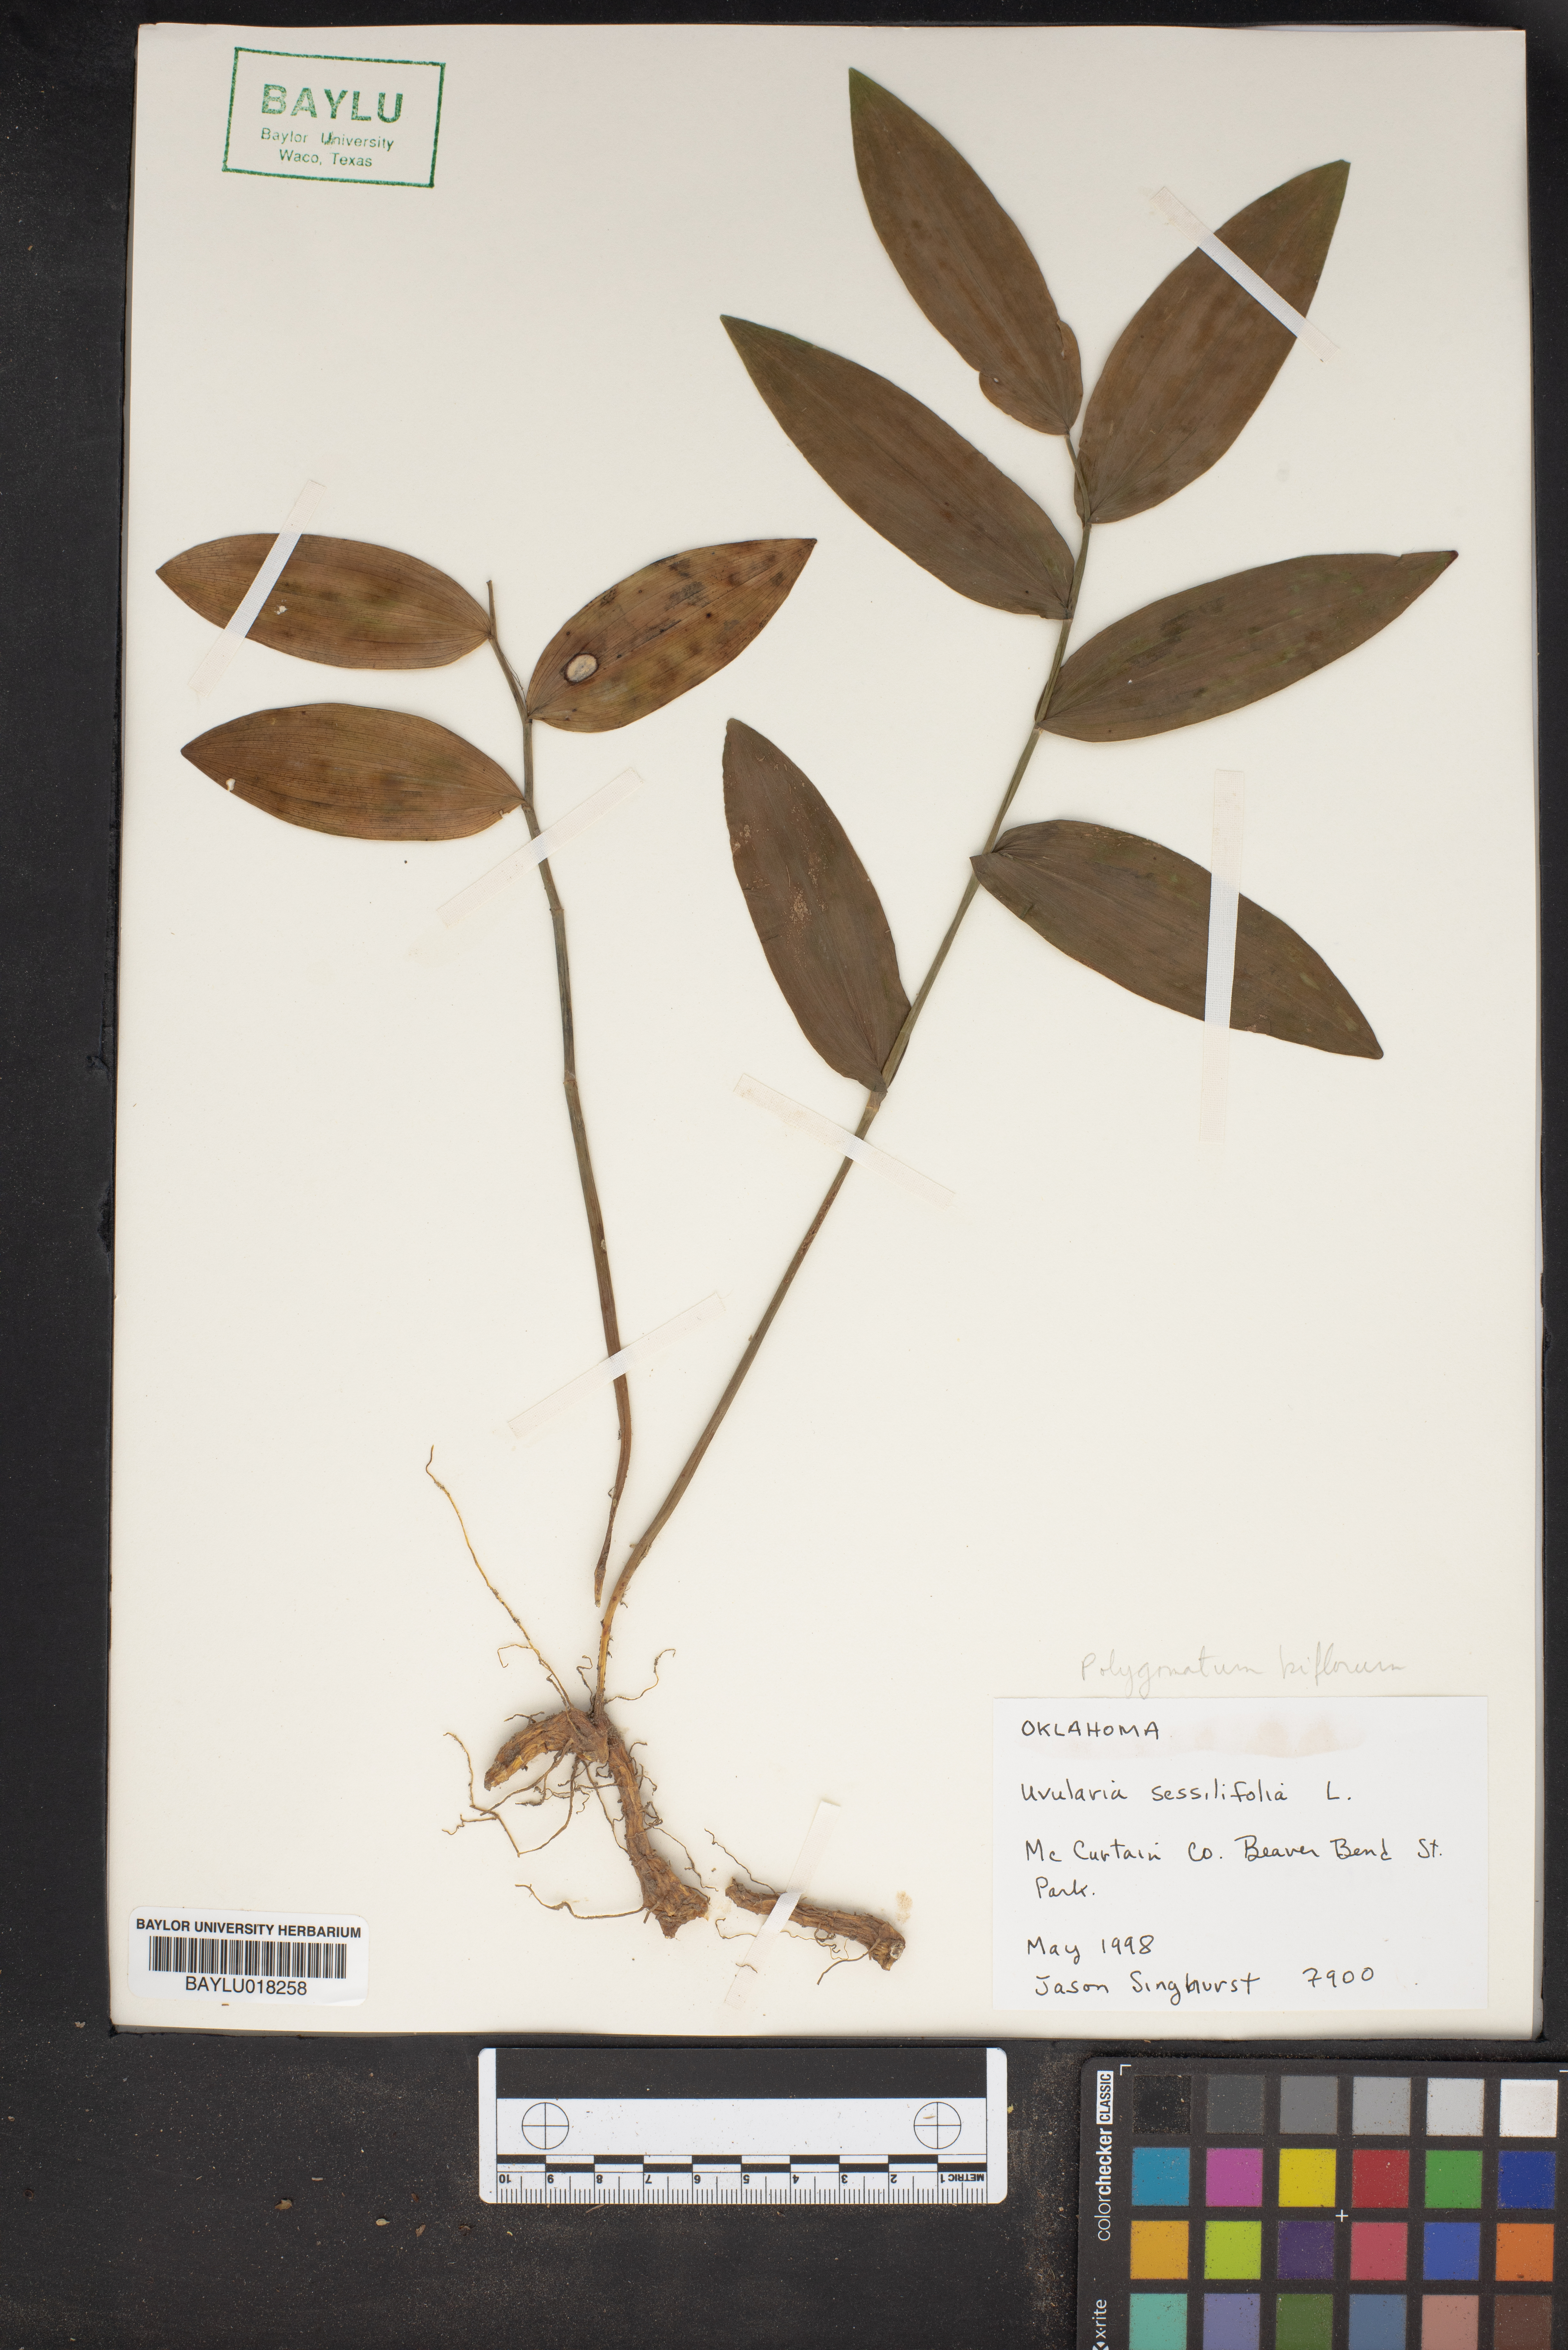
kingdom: Plantae
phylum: Tracheophyta
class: Liliopsida
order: Asparagales
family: Asparagaceae
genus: Polygonatum
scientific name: Polygonatum biflorum
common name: American solomon's-seal
